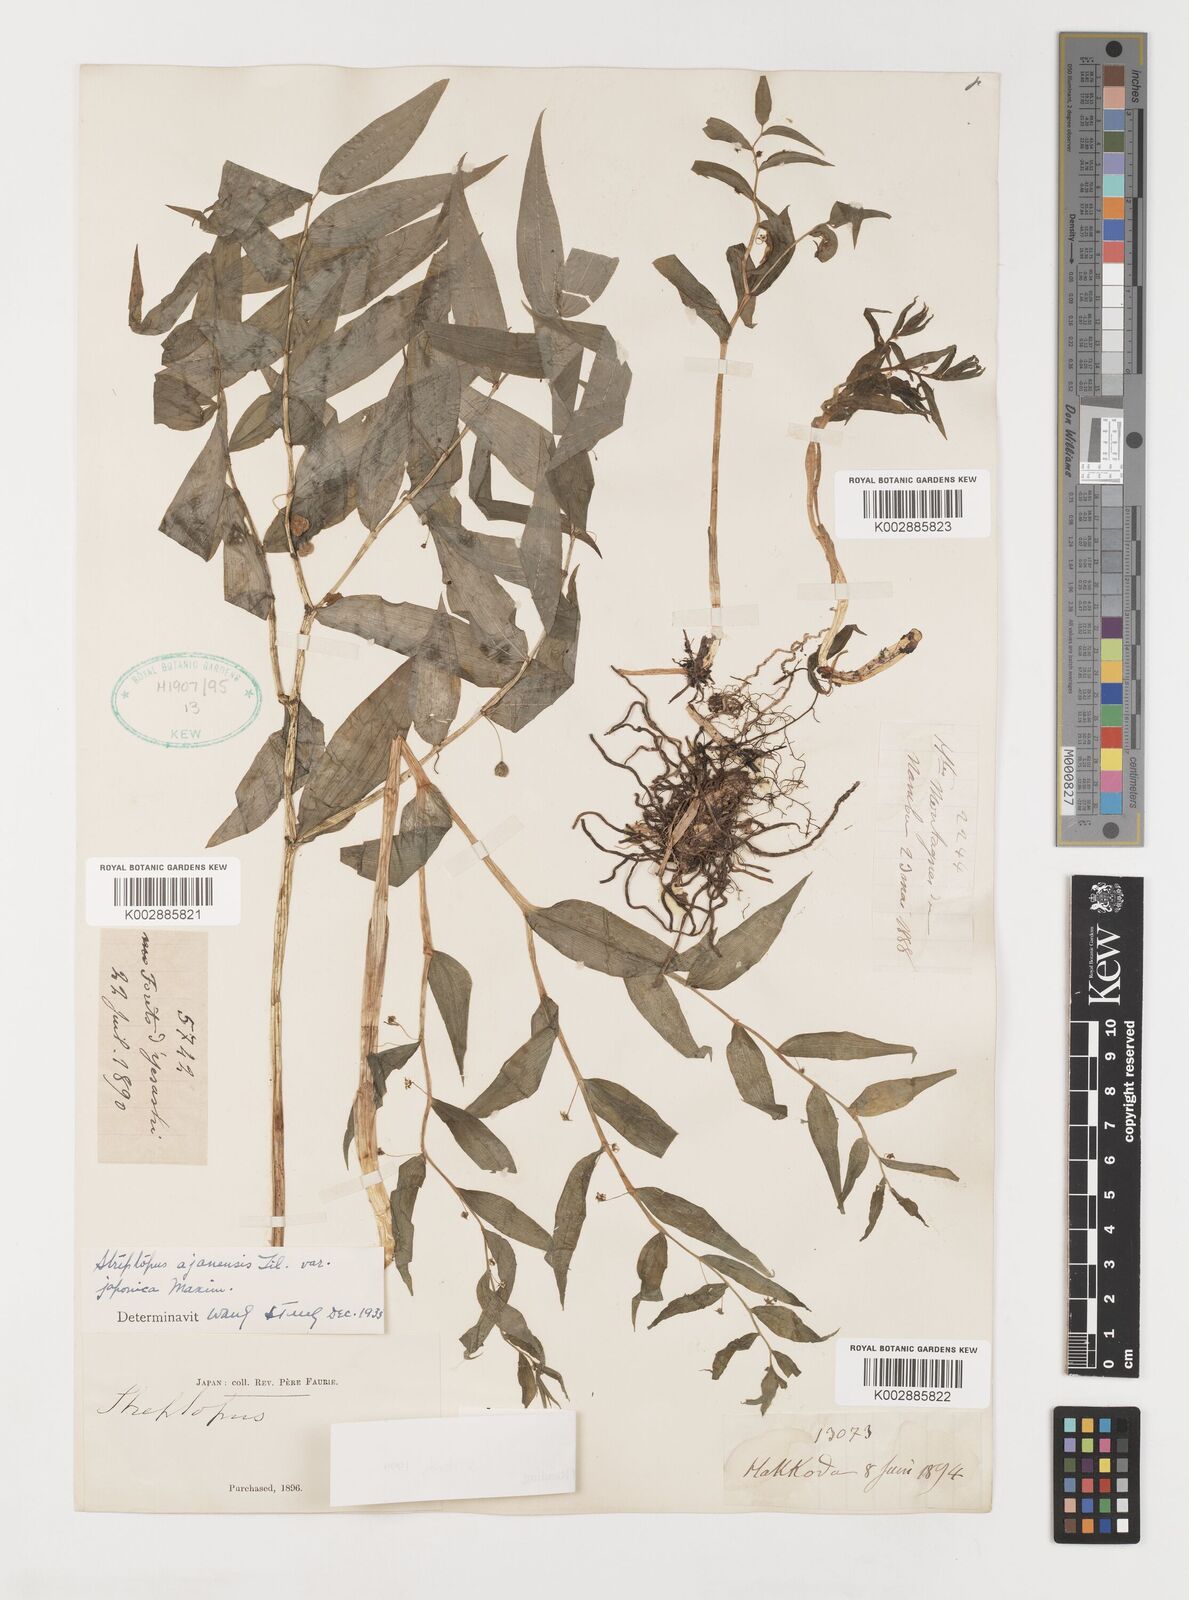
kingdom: Plantae
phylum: Tracheophyta
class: Liliopsida
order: Liliales
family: Liliaceae
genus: Streptopus
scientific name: Streptopus
